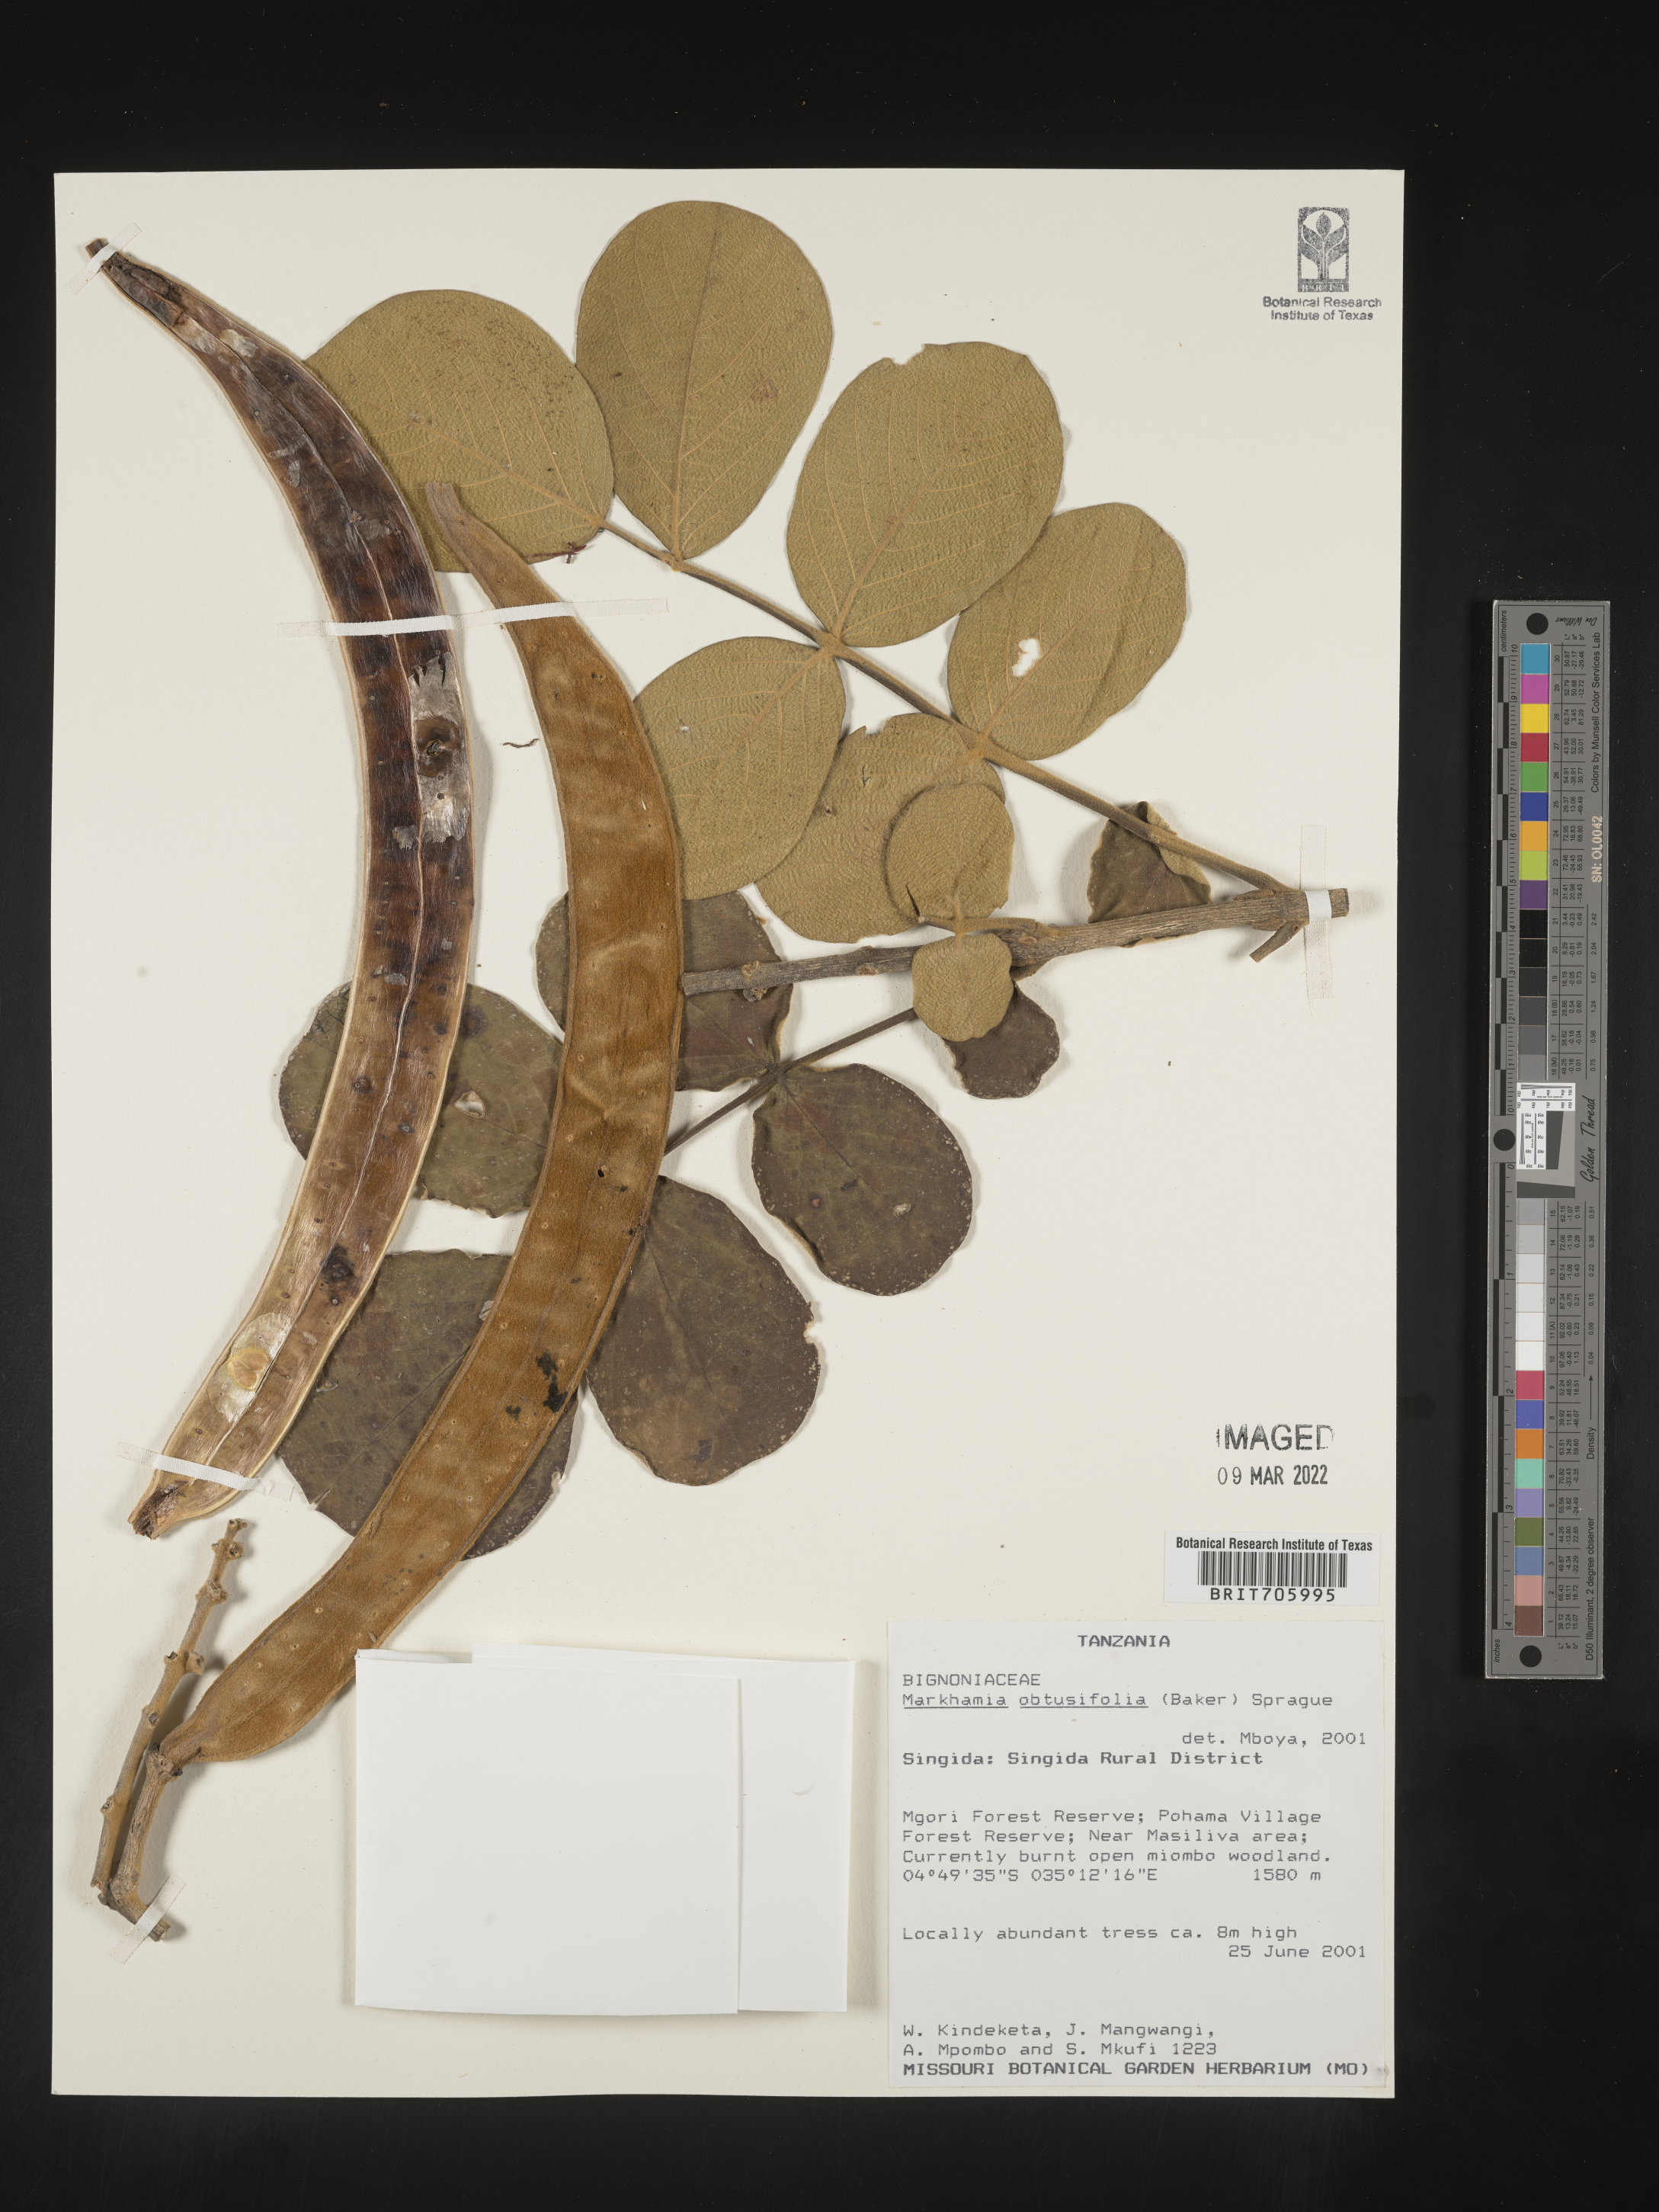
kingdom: Plantae
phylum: Tracheophyta
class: Magnoliopsida
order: Lamiales
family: Bignoniaceae
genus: Markhamia
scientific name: Markhamia
